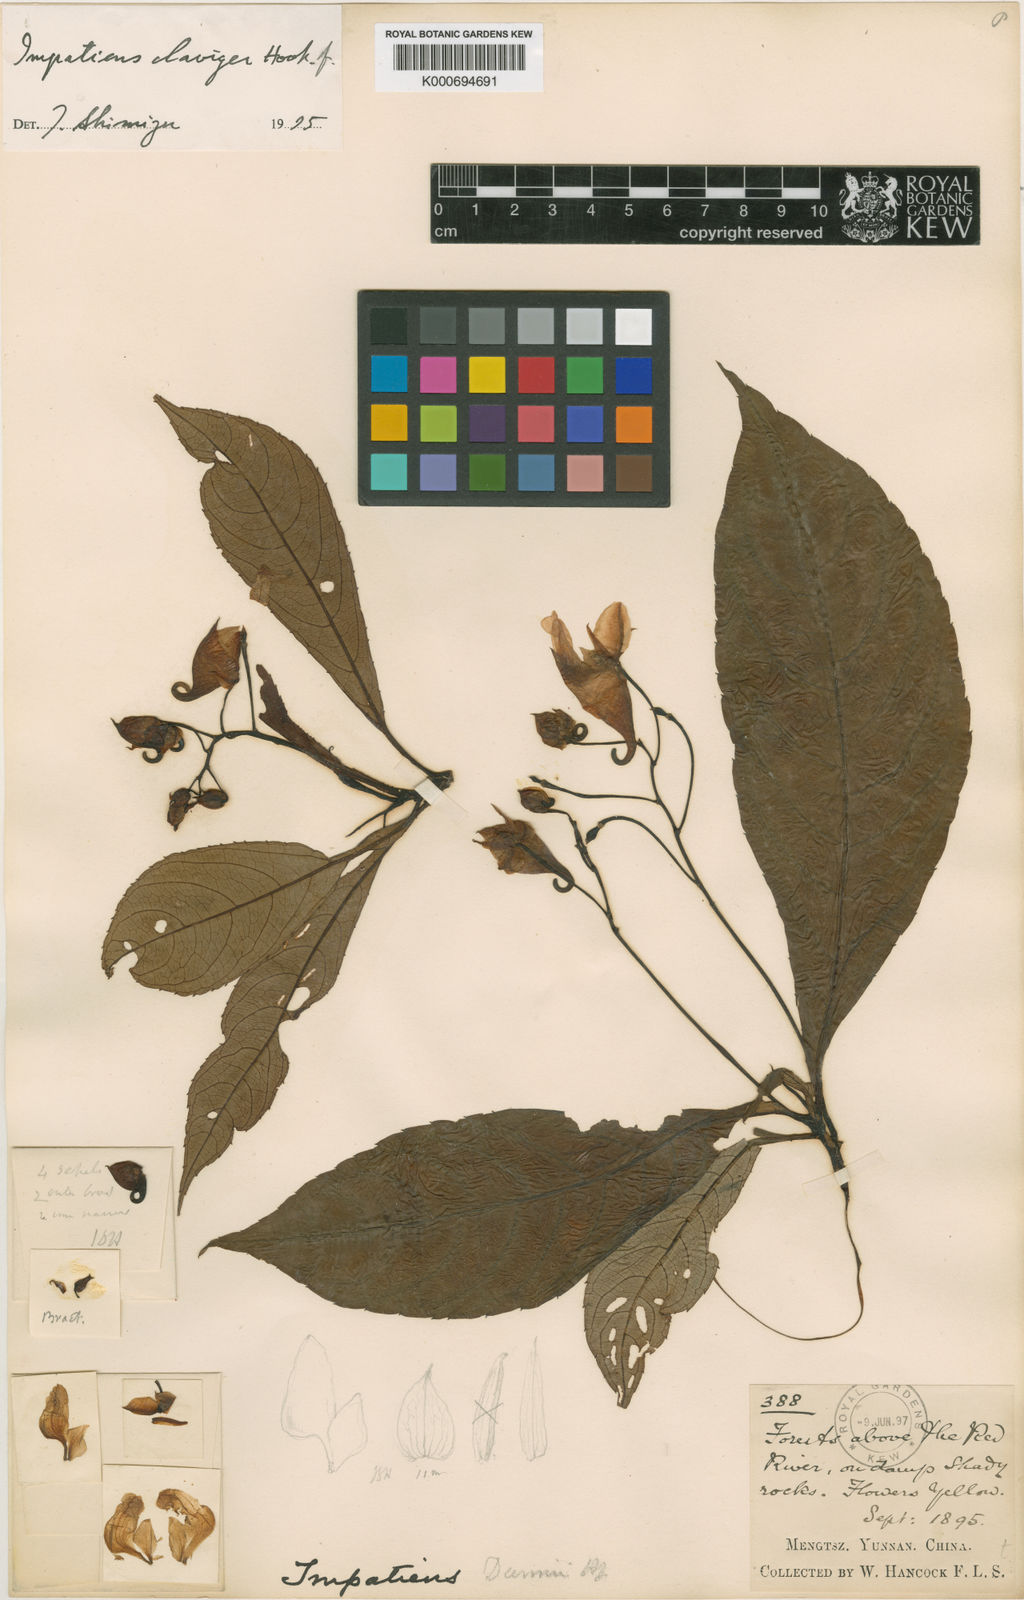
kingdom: Plantae
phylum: Tracheophyta
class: Magnoliopsida
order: Ericales
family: Balsaminaceae
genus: Impatiens
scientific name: Impatiens
